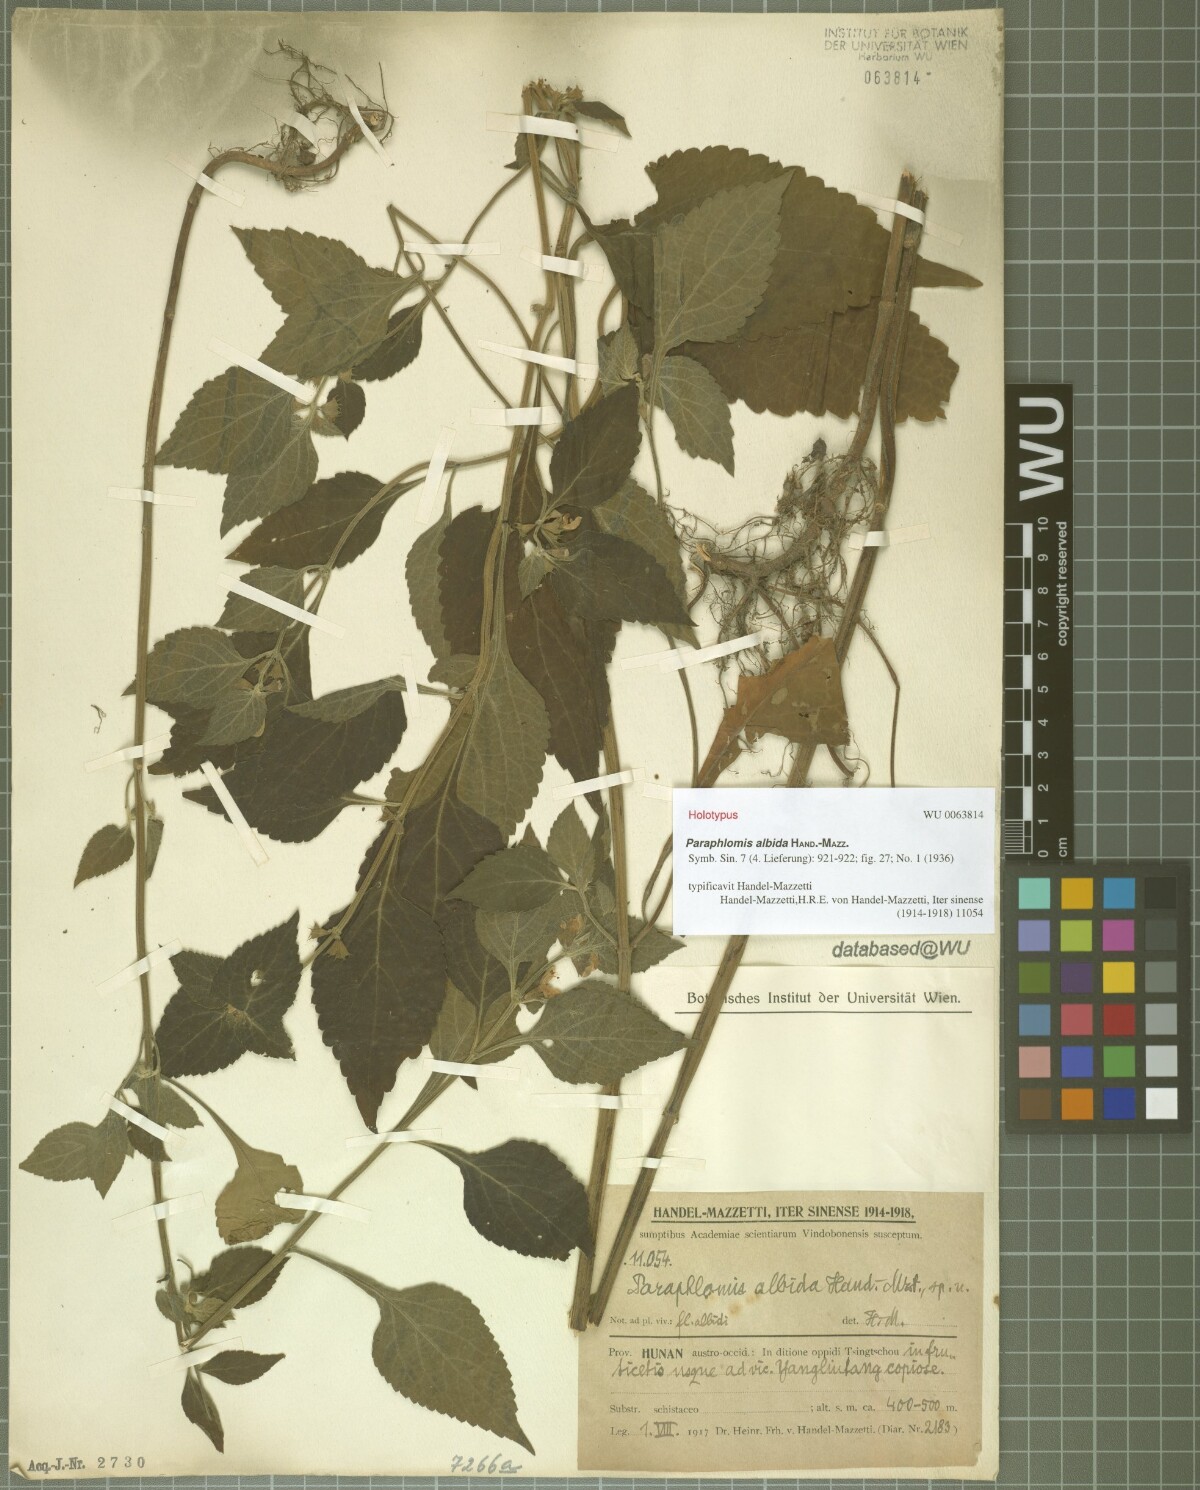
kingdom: Plantae
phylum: Tracheophyta
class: Magnoliopsida
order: Lamiales
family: Lamiaceae
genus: Paraphlomis
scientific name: Paraphlomis albida
